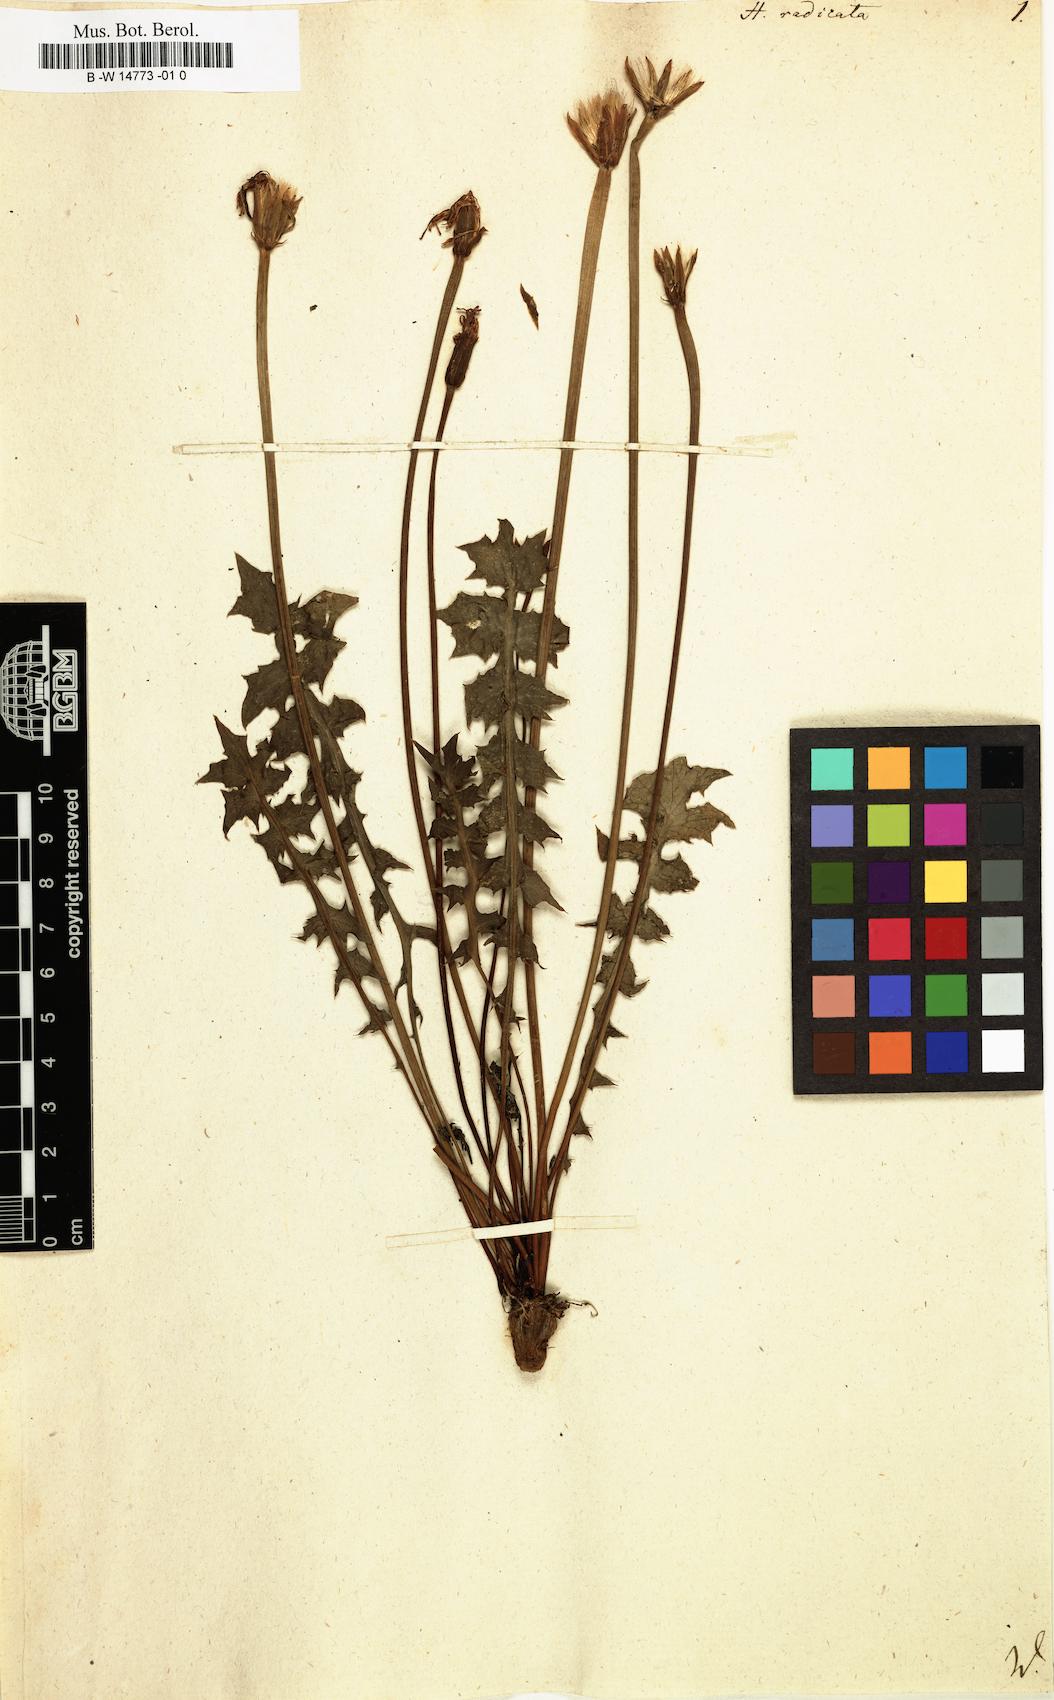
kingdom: Plantae
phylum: Tracheophyta
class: Magnoliopsida
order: Asterales
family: Asteraceae
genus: Hyoseris
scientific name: Hyoseris radiata
